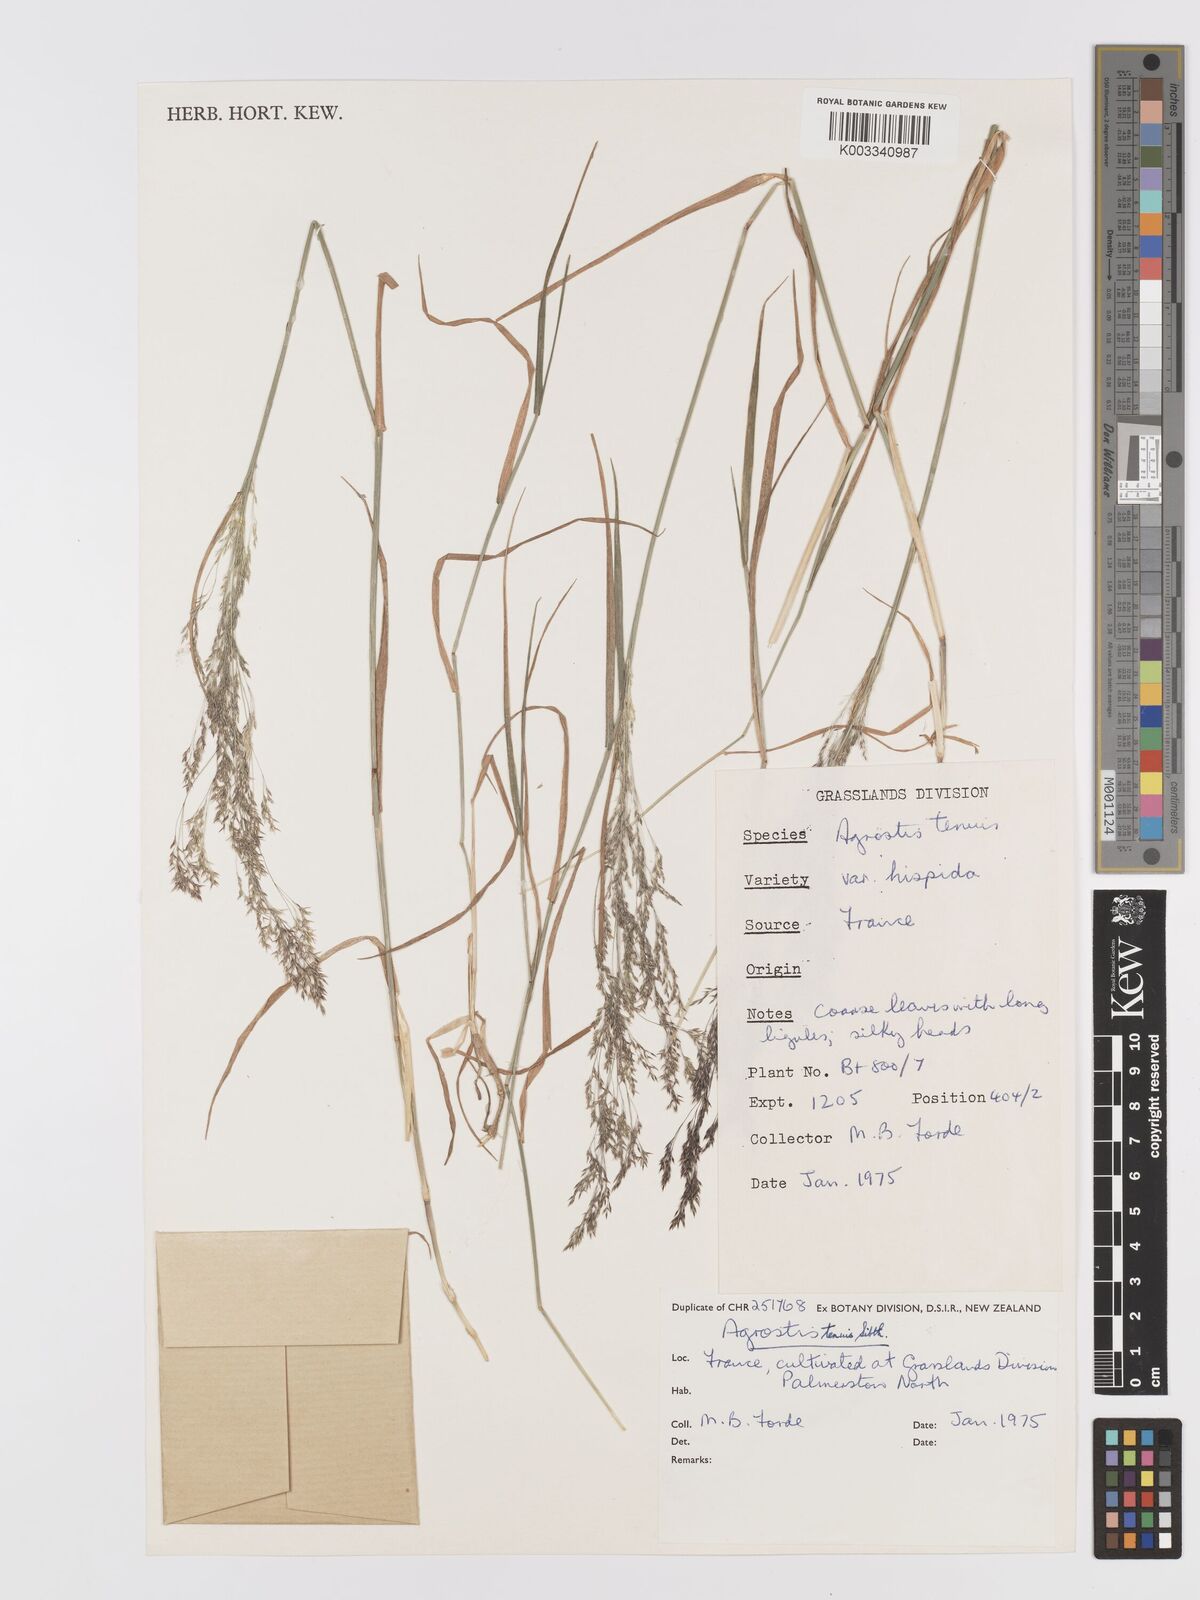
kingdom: Plantae
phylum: Tracheophyta
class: Liliopsida
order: Poales
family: Poaceae
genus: Agrostis
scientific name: Agrostis capillaris
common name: Colonial bentgrass
